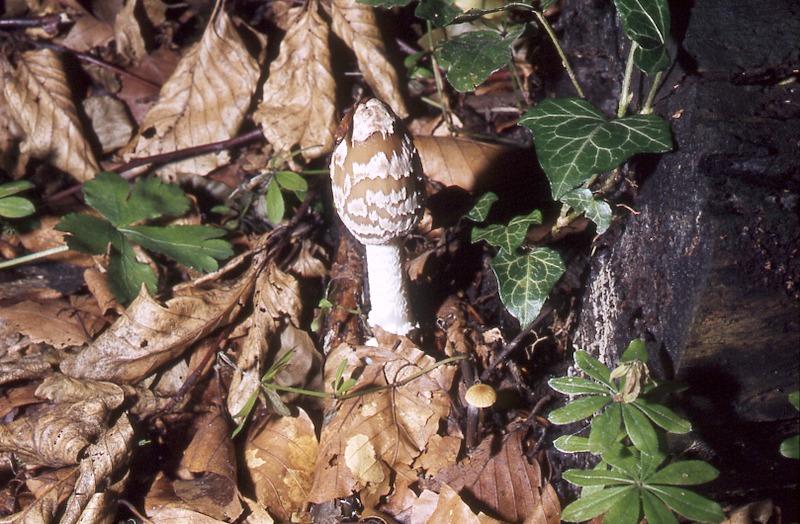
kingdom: Fungi
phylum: Basidiomycota
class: Agaricomycetes
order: Agaricales
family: Psathyrellaceae
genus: Coprinopsis
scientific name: Coprinopsis picacea
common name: Magpie inkcap
